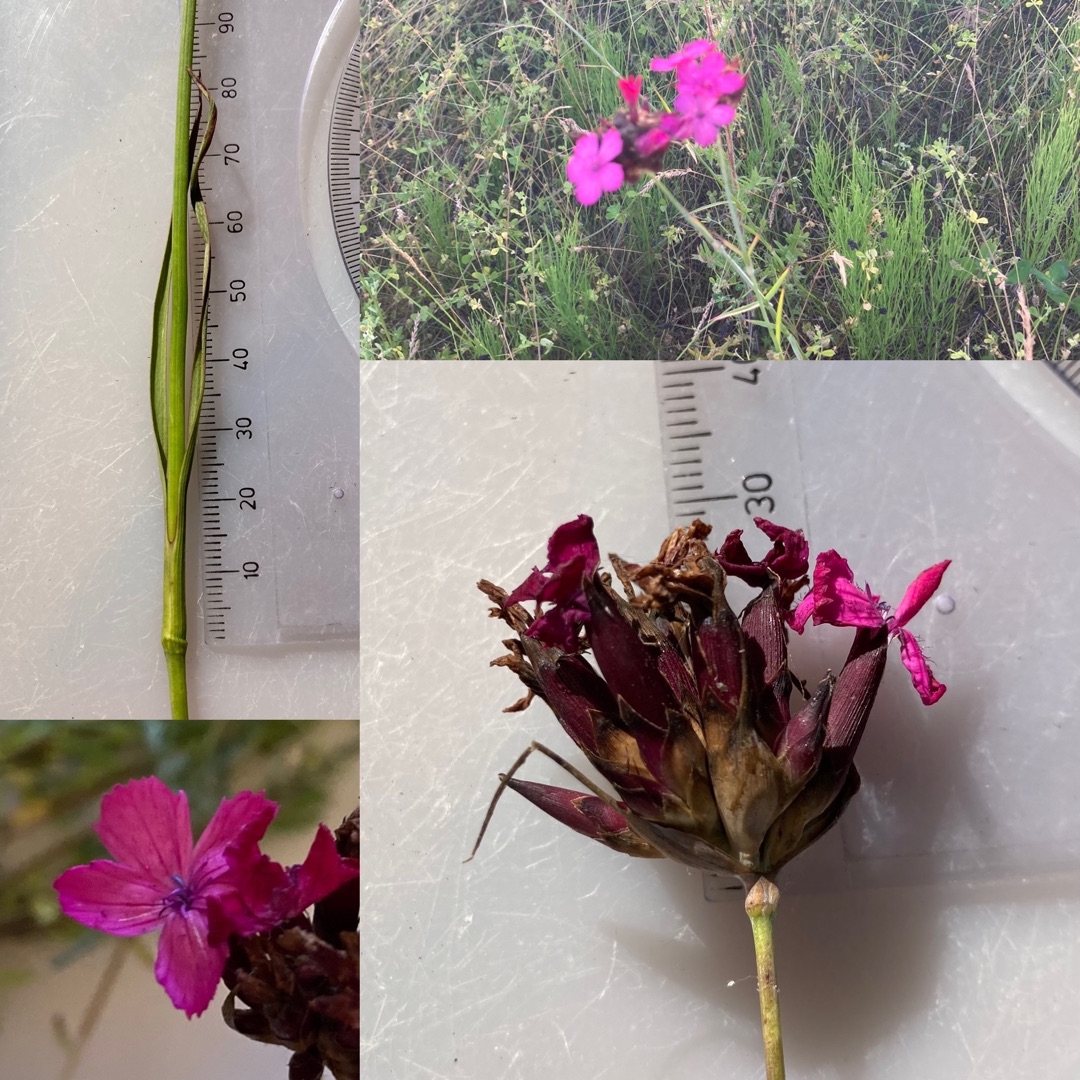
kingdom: Plantae
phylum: Tracheophyta
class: Magnoliopsida
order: Caryophyllales
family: Caryophyllaceae
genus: Dianthus
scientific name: Dianthus carthusianorum
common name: Karteuser-nellike
